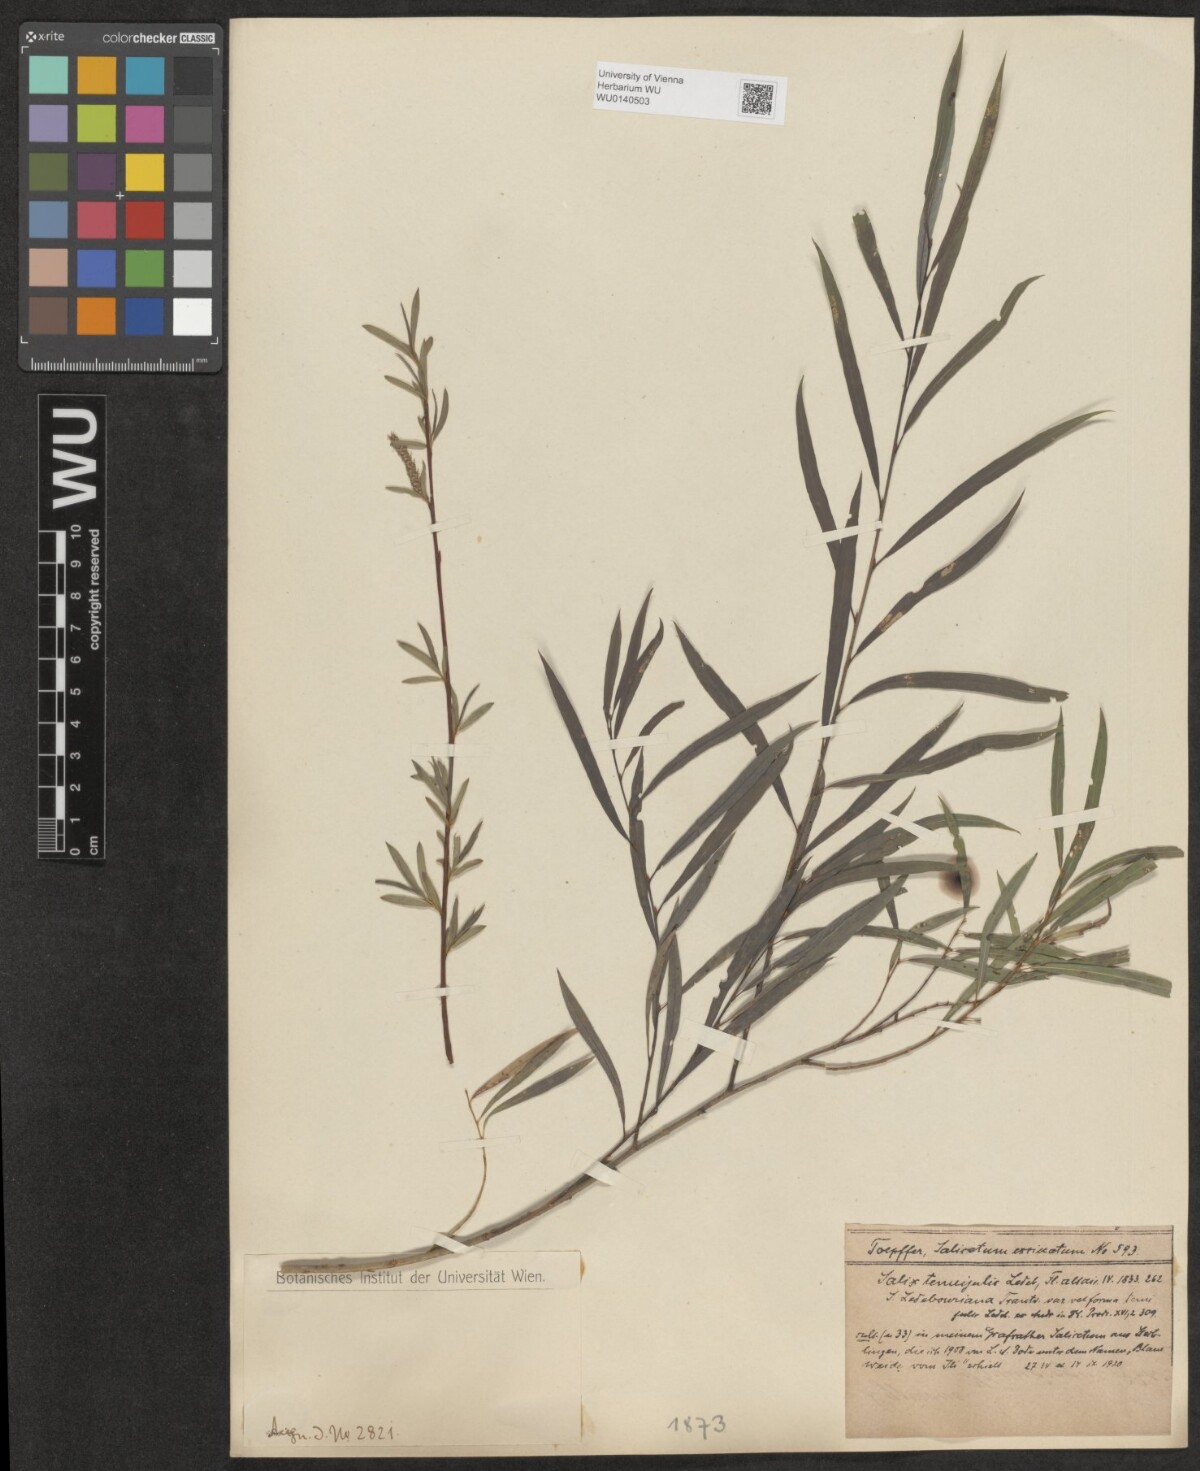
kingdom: Plantae
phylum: Tracheophyta
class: Magnoliopsida
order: Malpighiales
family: Salicaceae
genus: Salix
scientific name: Salix tenuijulis
